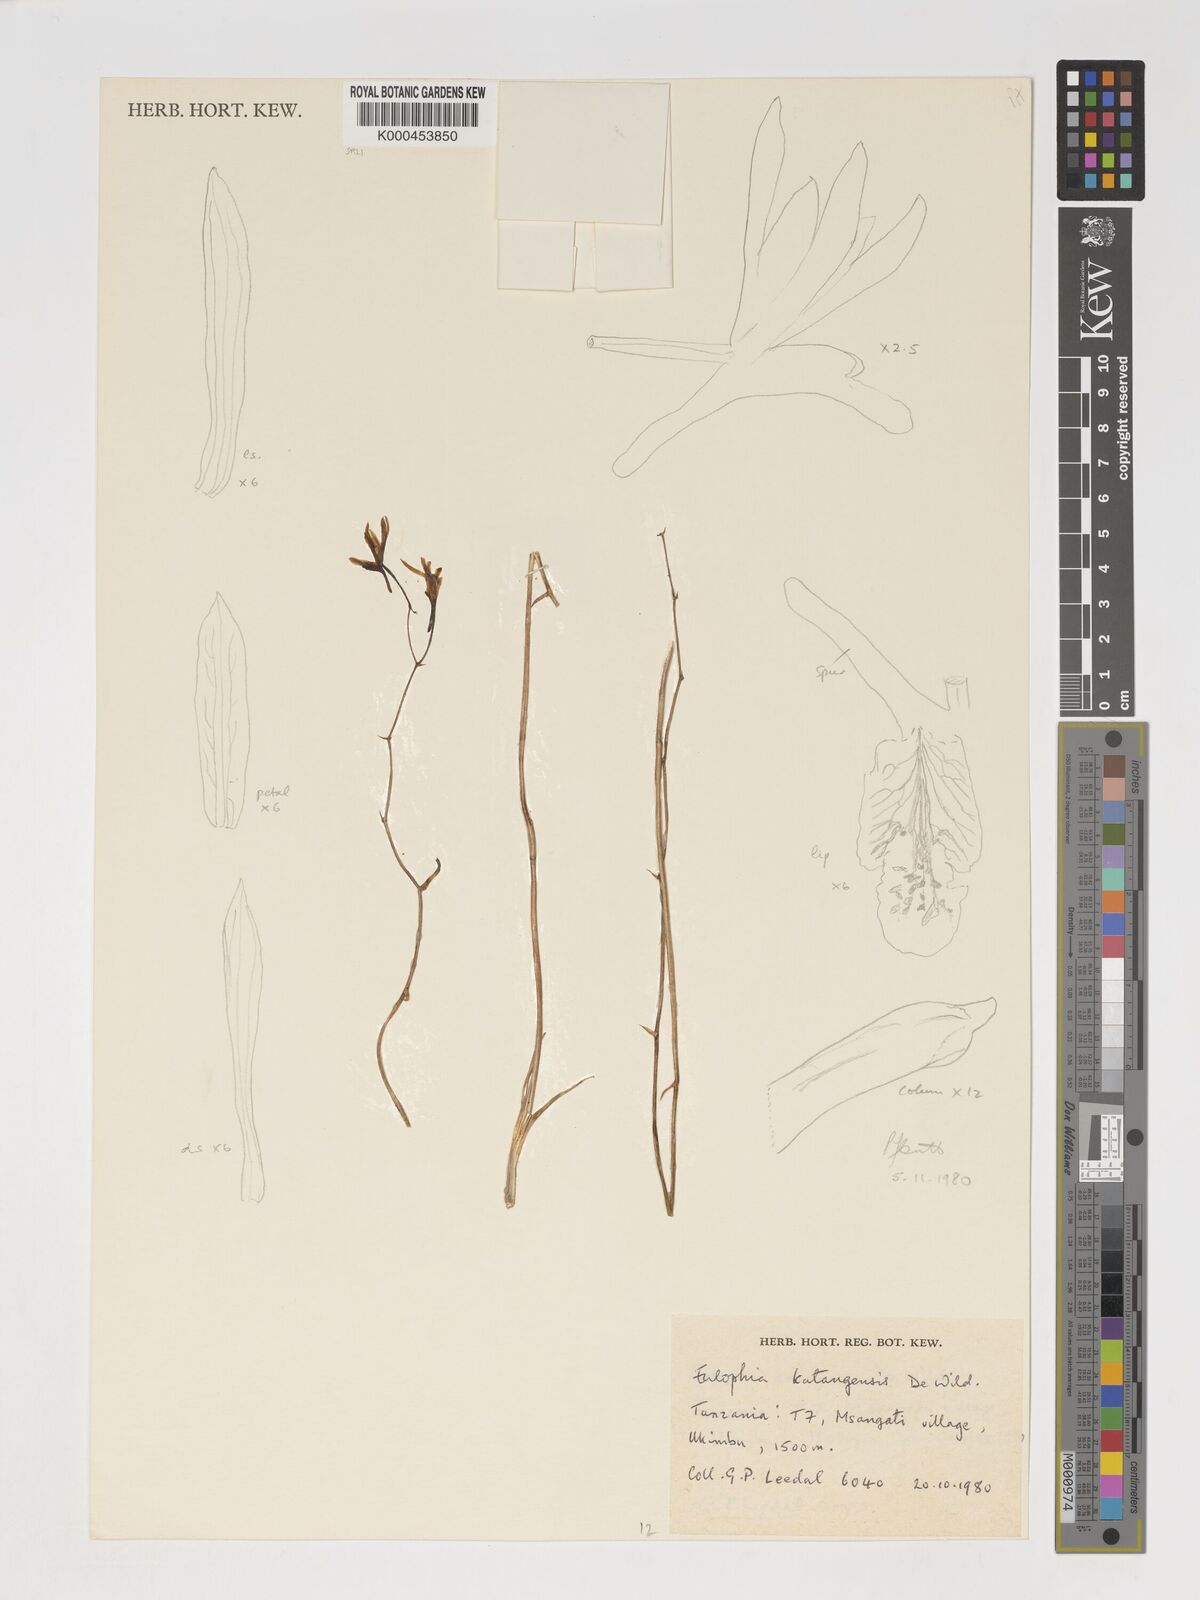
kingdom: Plantae
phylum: Tracheophyta
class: Liliopsida
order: Asparagales
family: Orchidaceae
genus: Eulophia
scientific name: Eulophia katangensis
